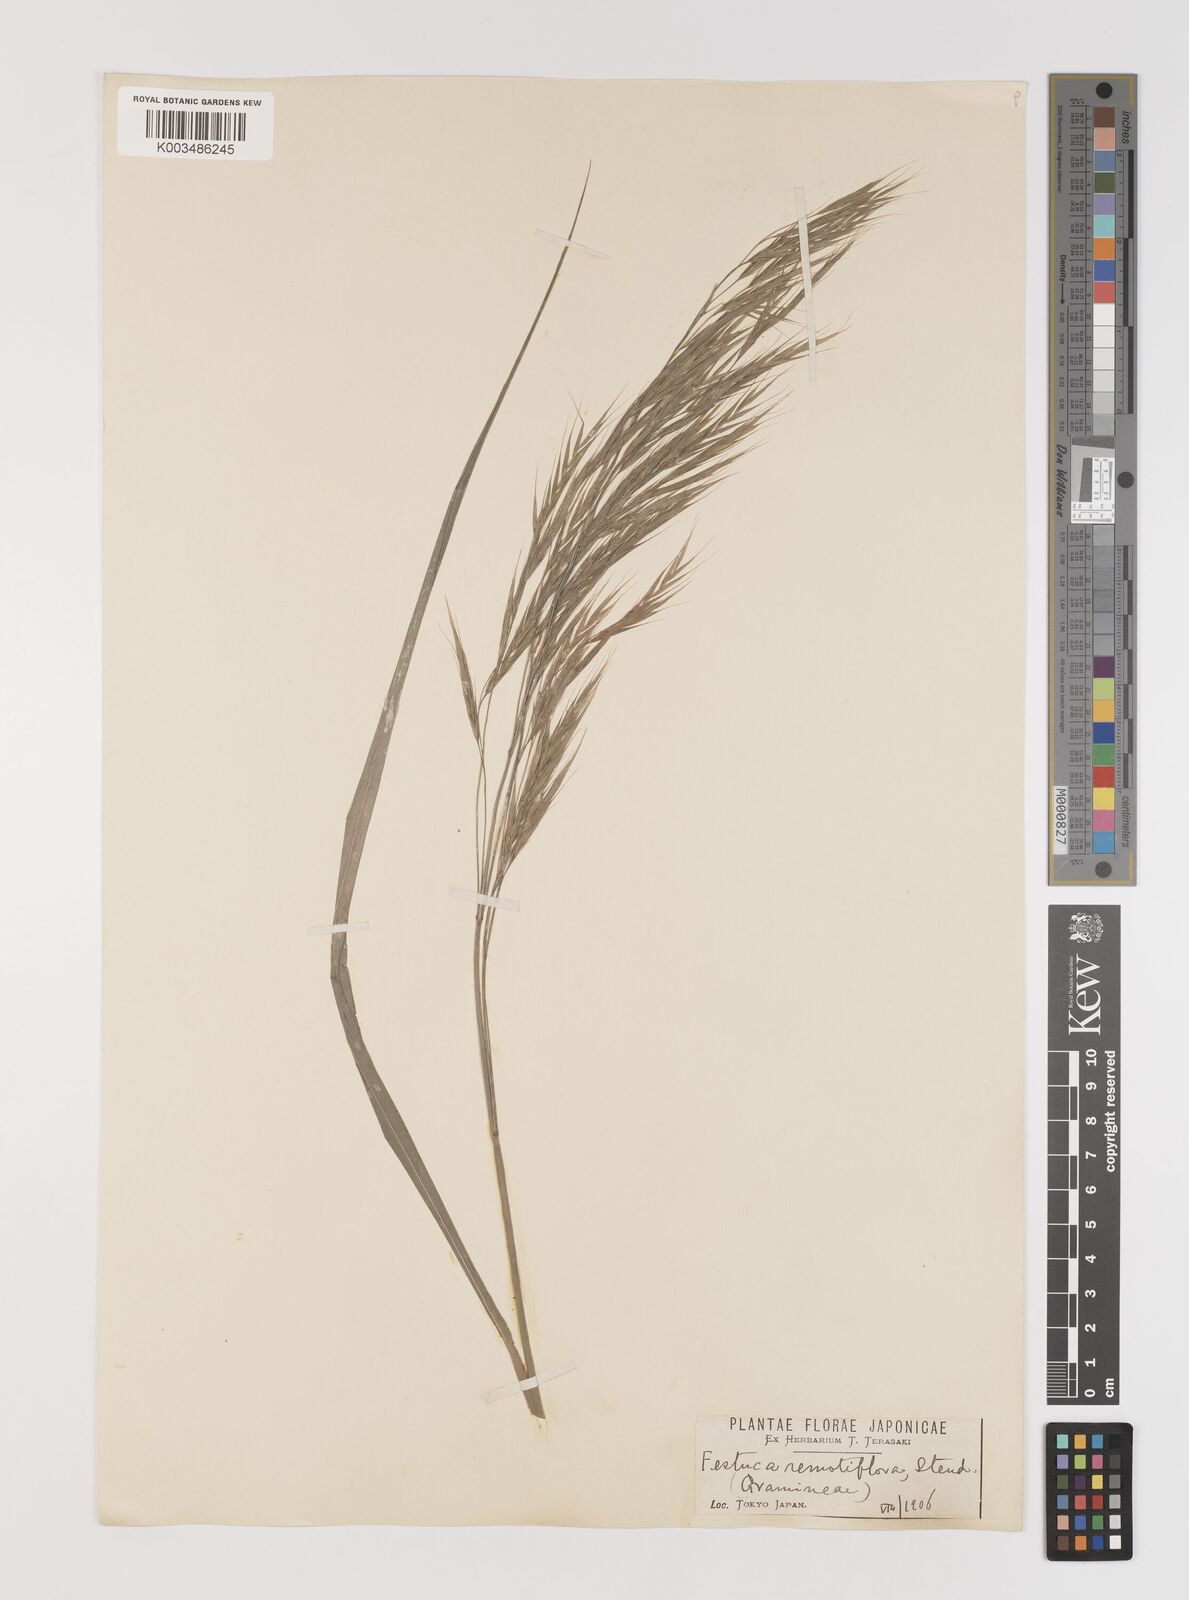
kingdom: Plantae
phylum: Tracheophyta
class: Liliopsida
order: Poales
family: Poaceae
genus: Bromus
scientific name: Bromus remotiflorus
